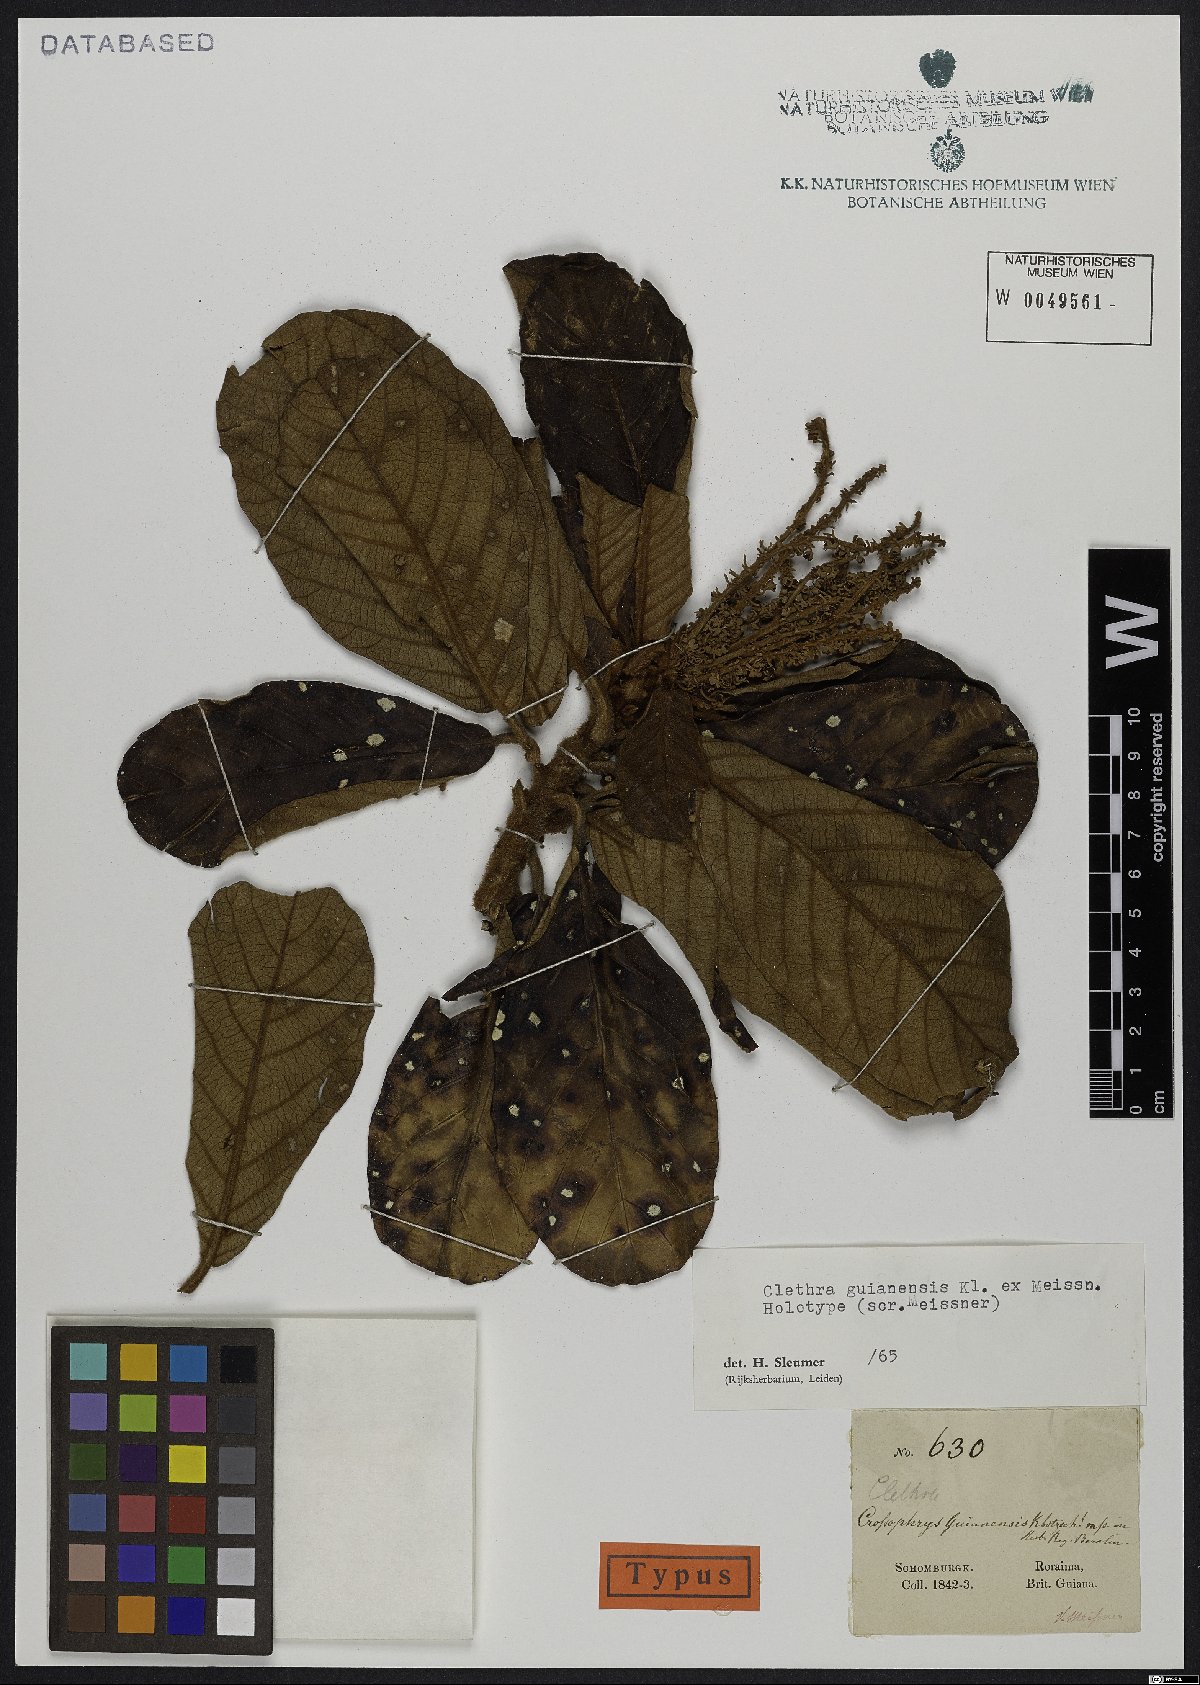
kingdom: Plantae
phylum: Tracheophyta
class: Magnoliopsida
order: Ericales
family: Clethraceae
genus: Clethra
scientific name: Clethra guyanensis
